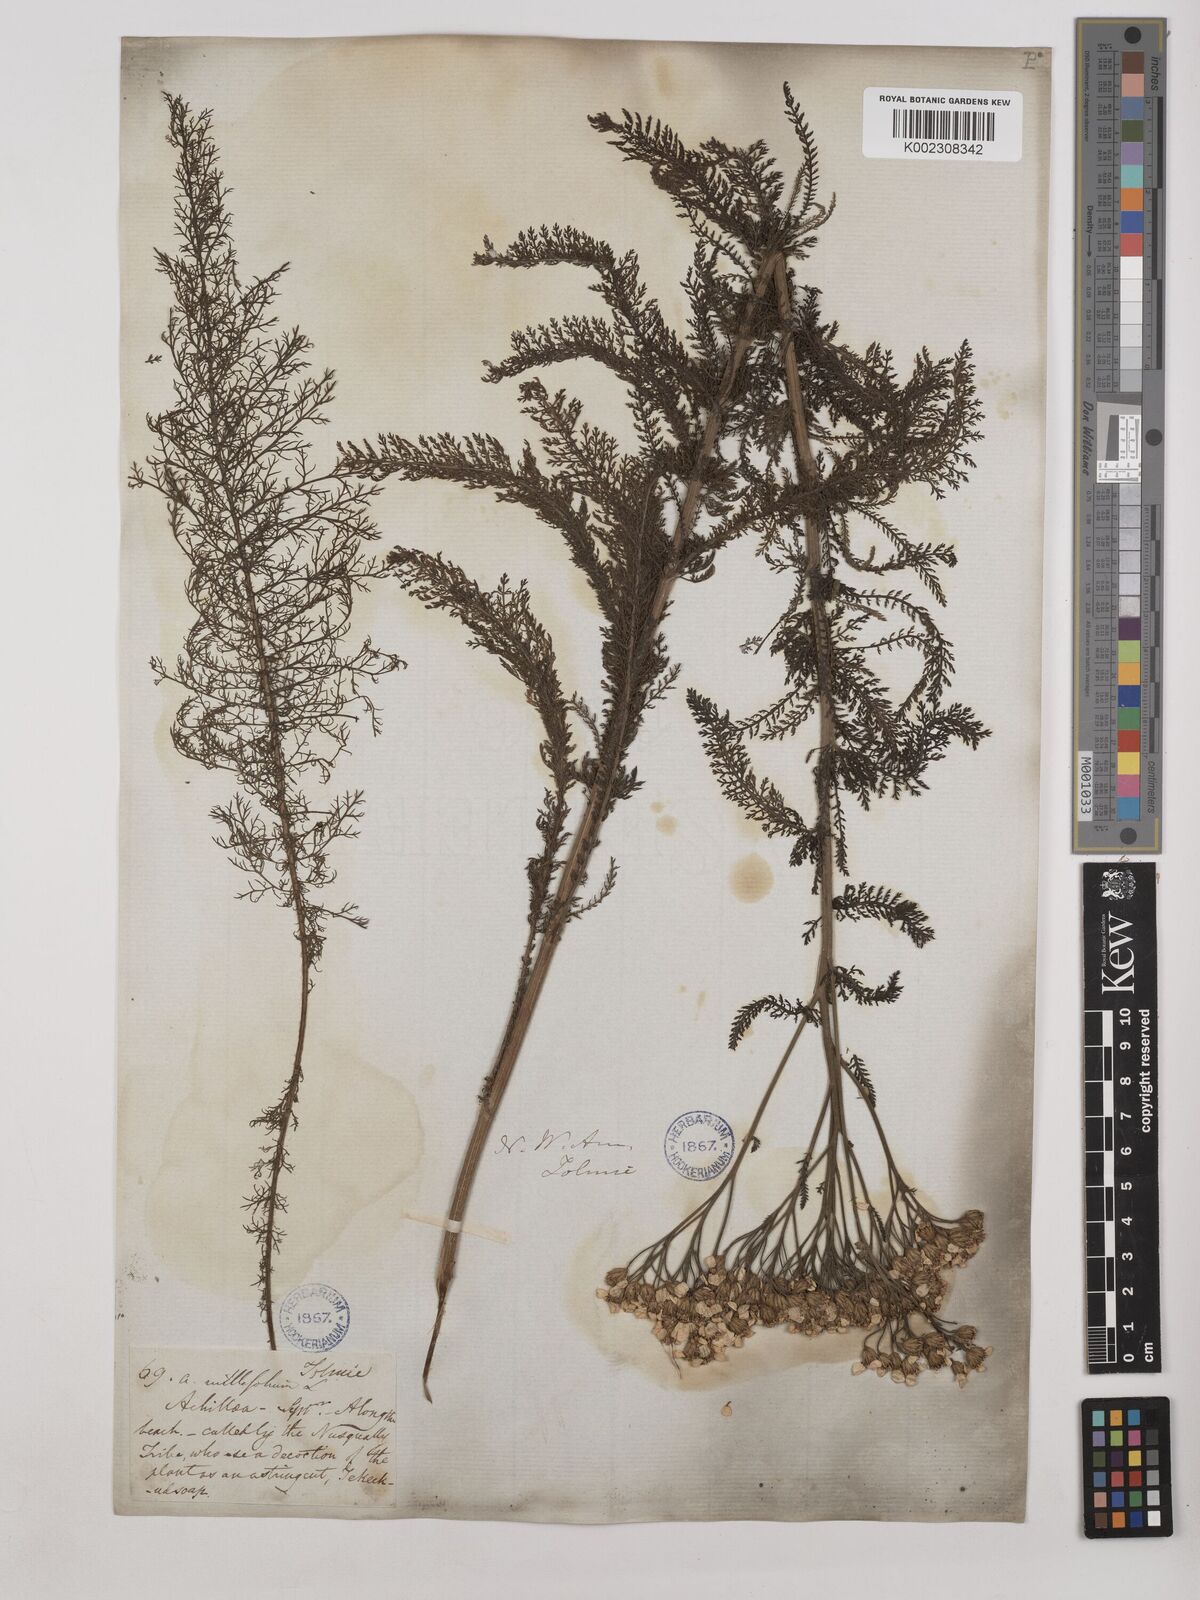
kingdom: Plantae
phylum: Tracheophyta
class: Magnoliopsida
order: Asterales
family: Asteraceae
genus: Achillea
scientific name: Achillea millefolium
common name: Yarrow
